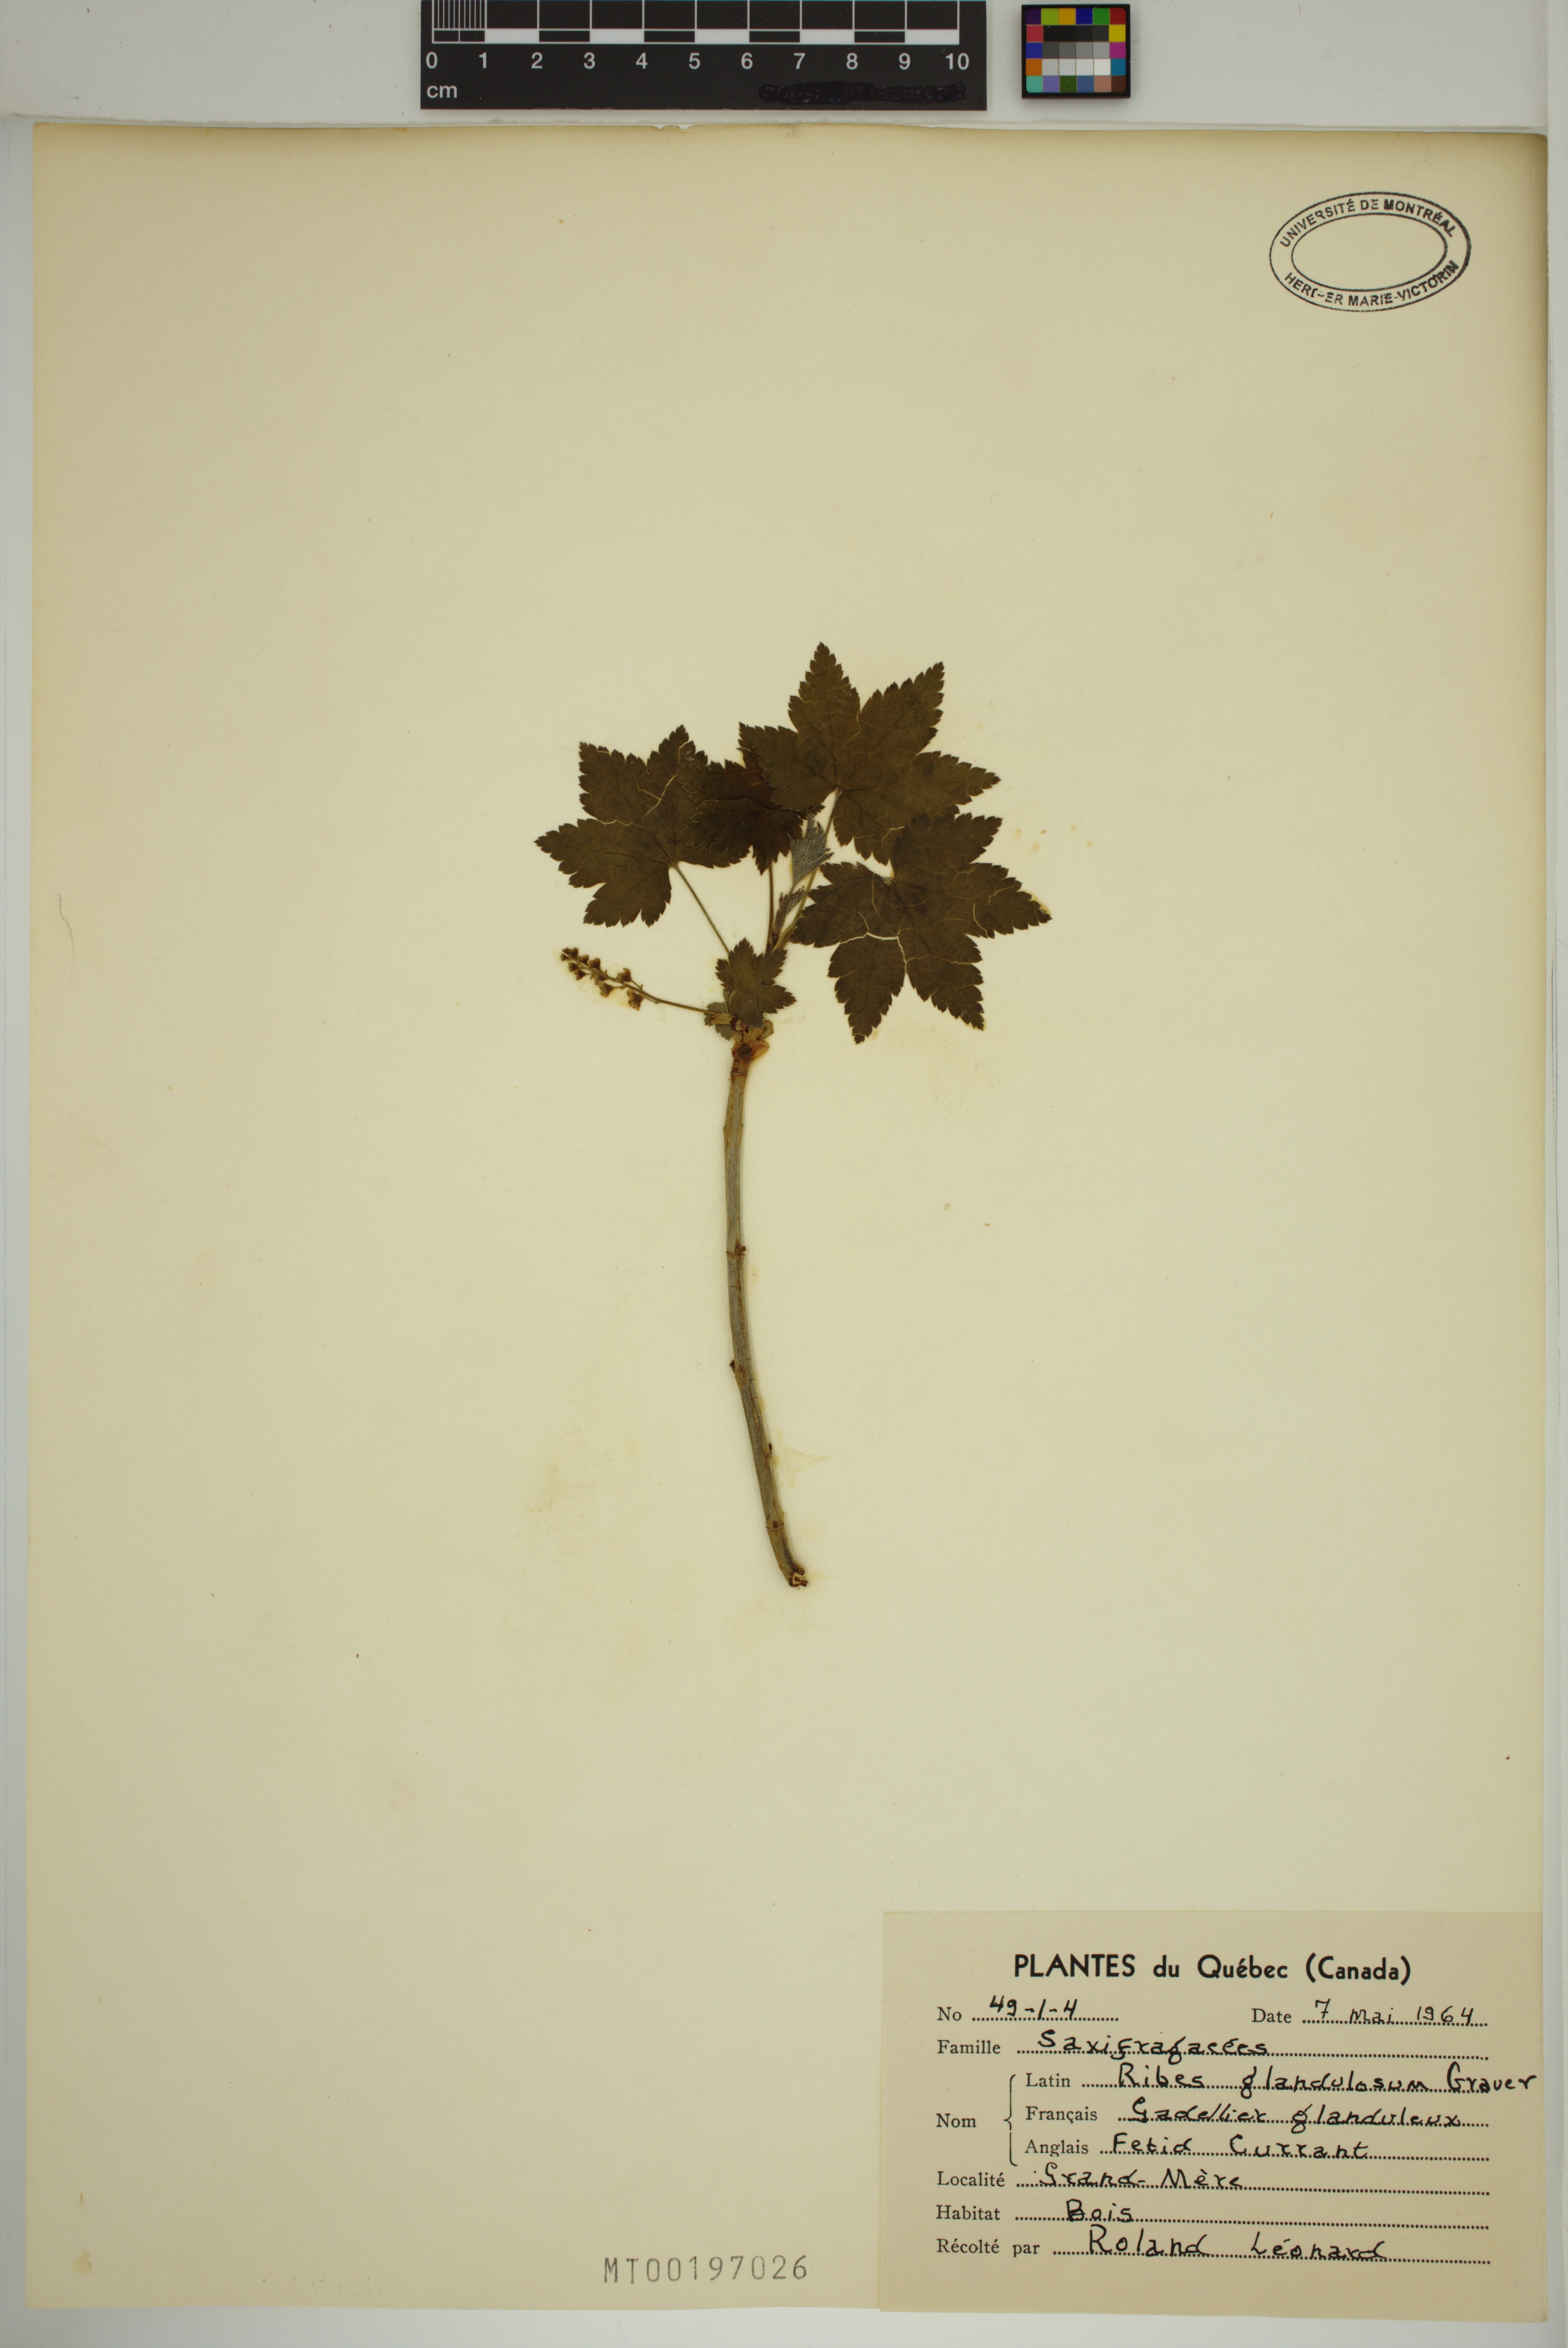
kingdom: Plantae
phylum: Tracheophyta
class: Magnoliopsida
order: Saxifragales
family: Grossulariaceae
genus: Ribes
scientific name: Ribes glandulosum
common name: Skunk currant
